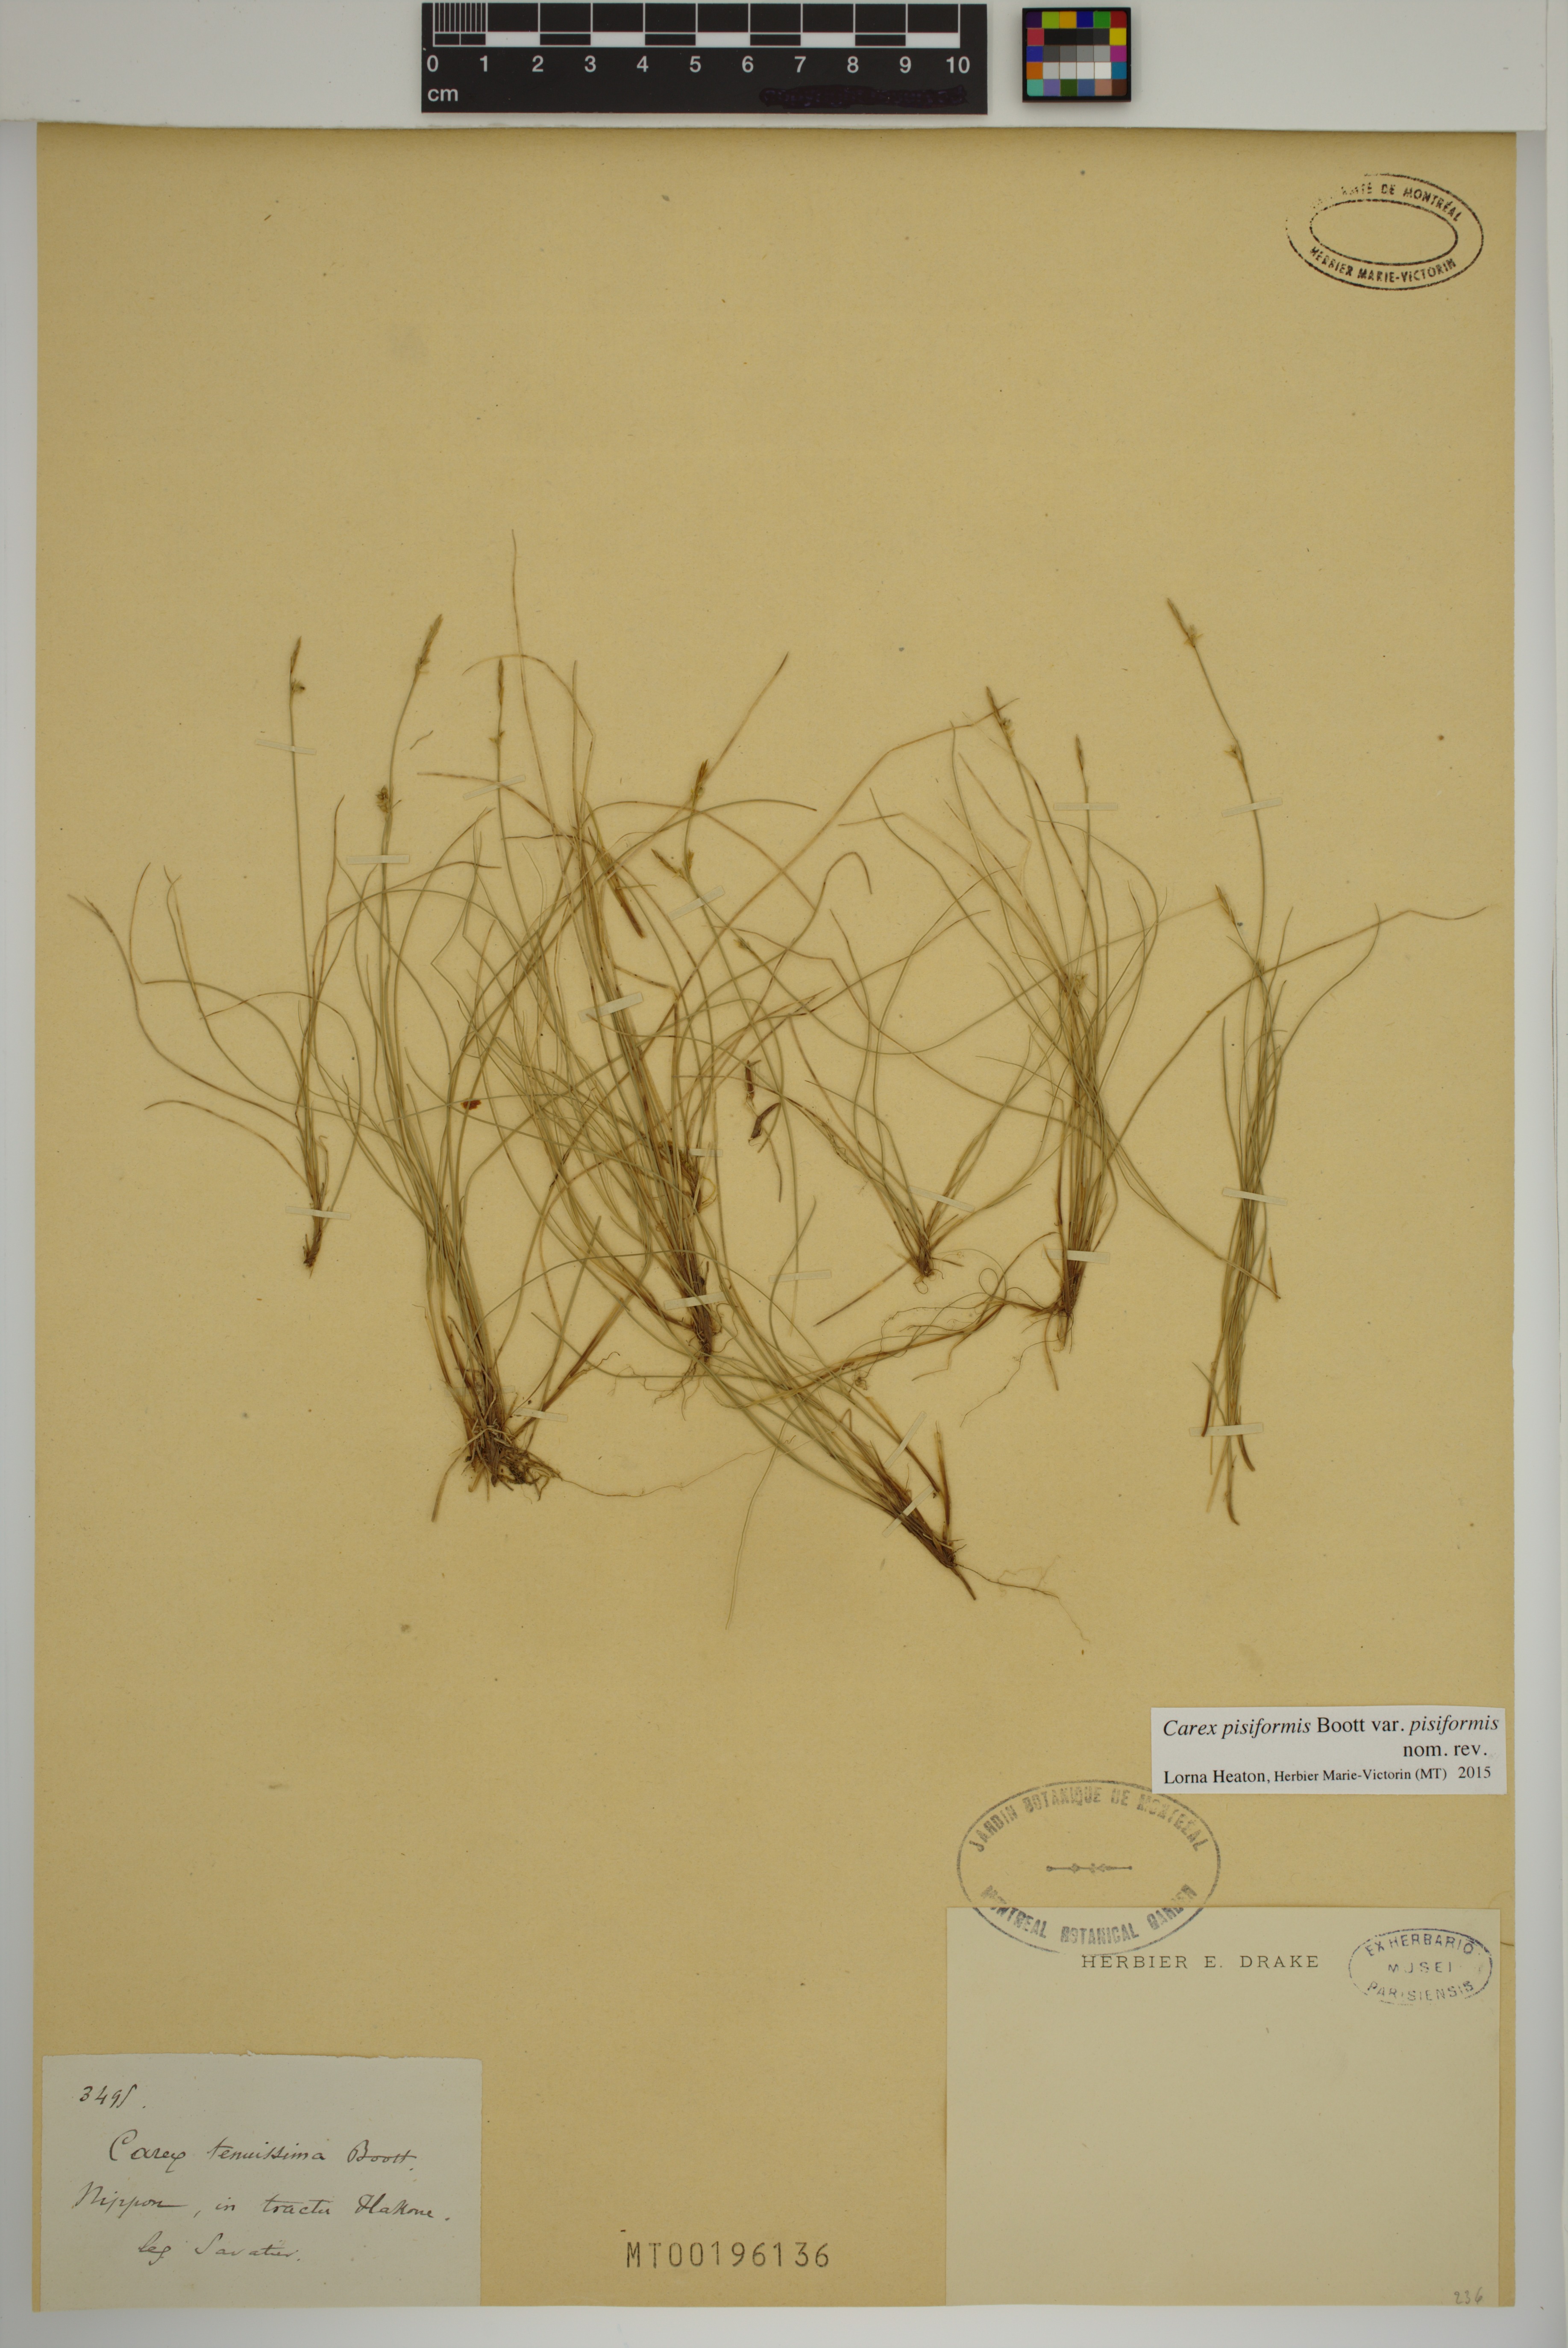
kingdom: Plantae
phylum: Tracheophyta
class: Liliopsida
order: Poales
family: Cyperaceae
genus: Carex
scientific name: Carex pisiformis
